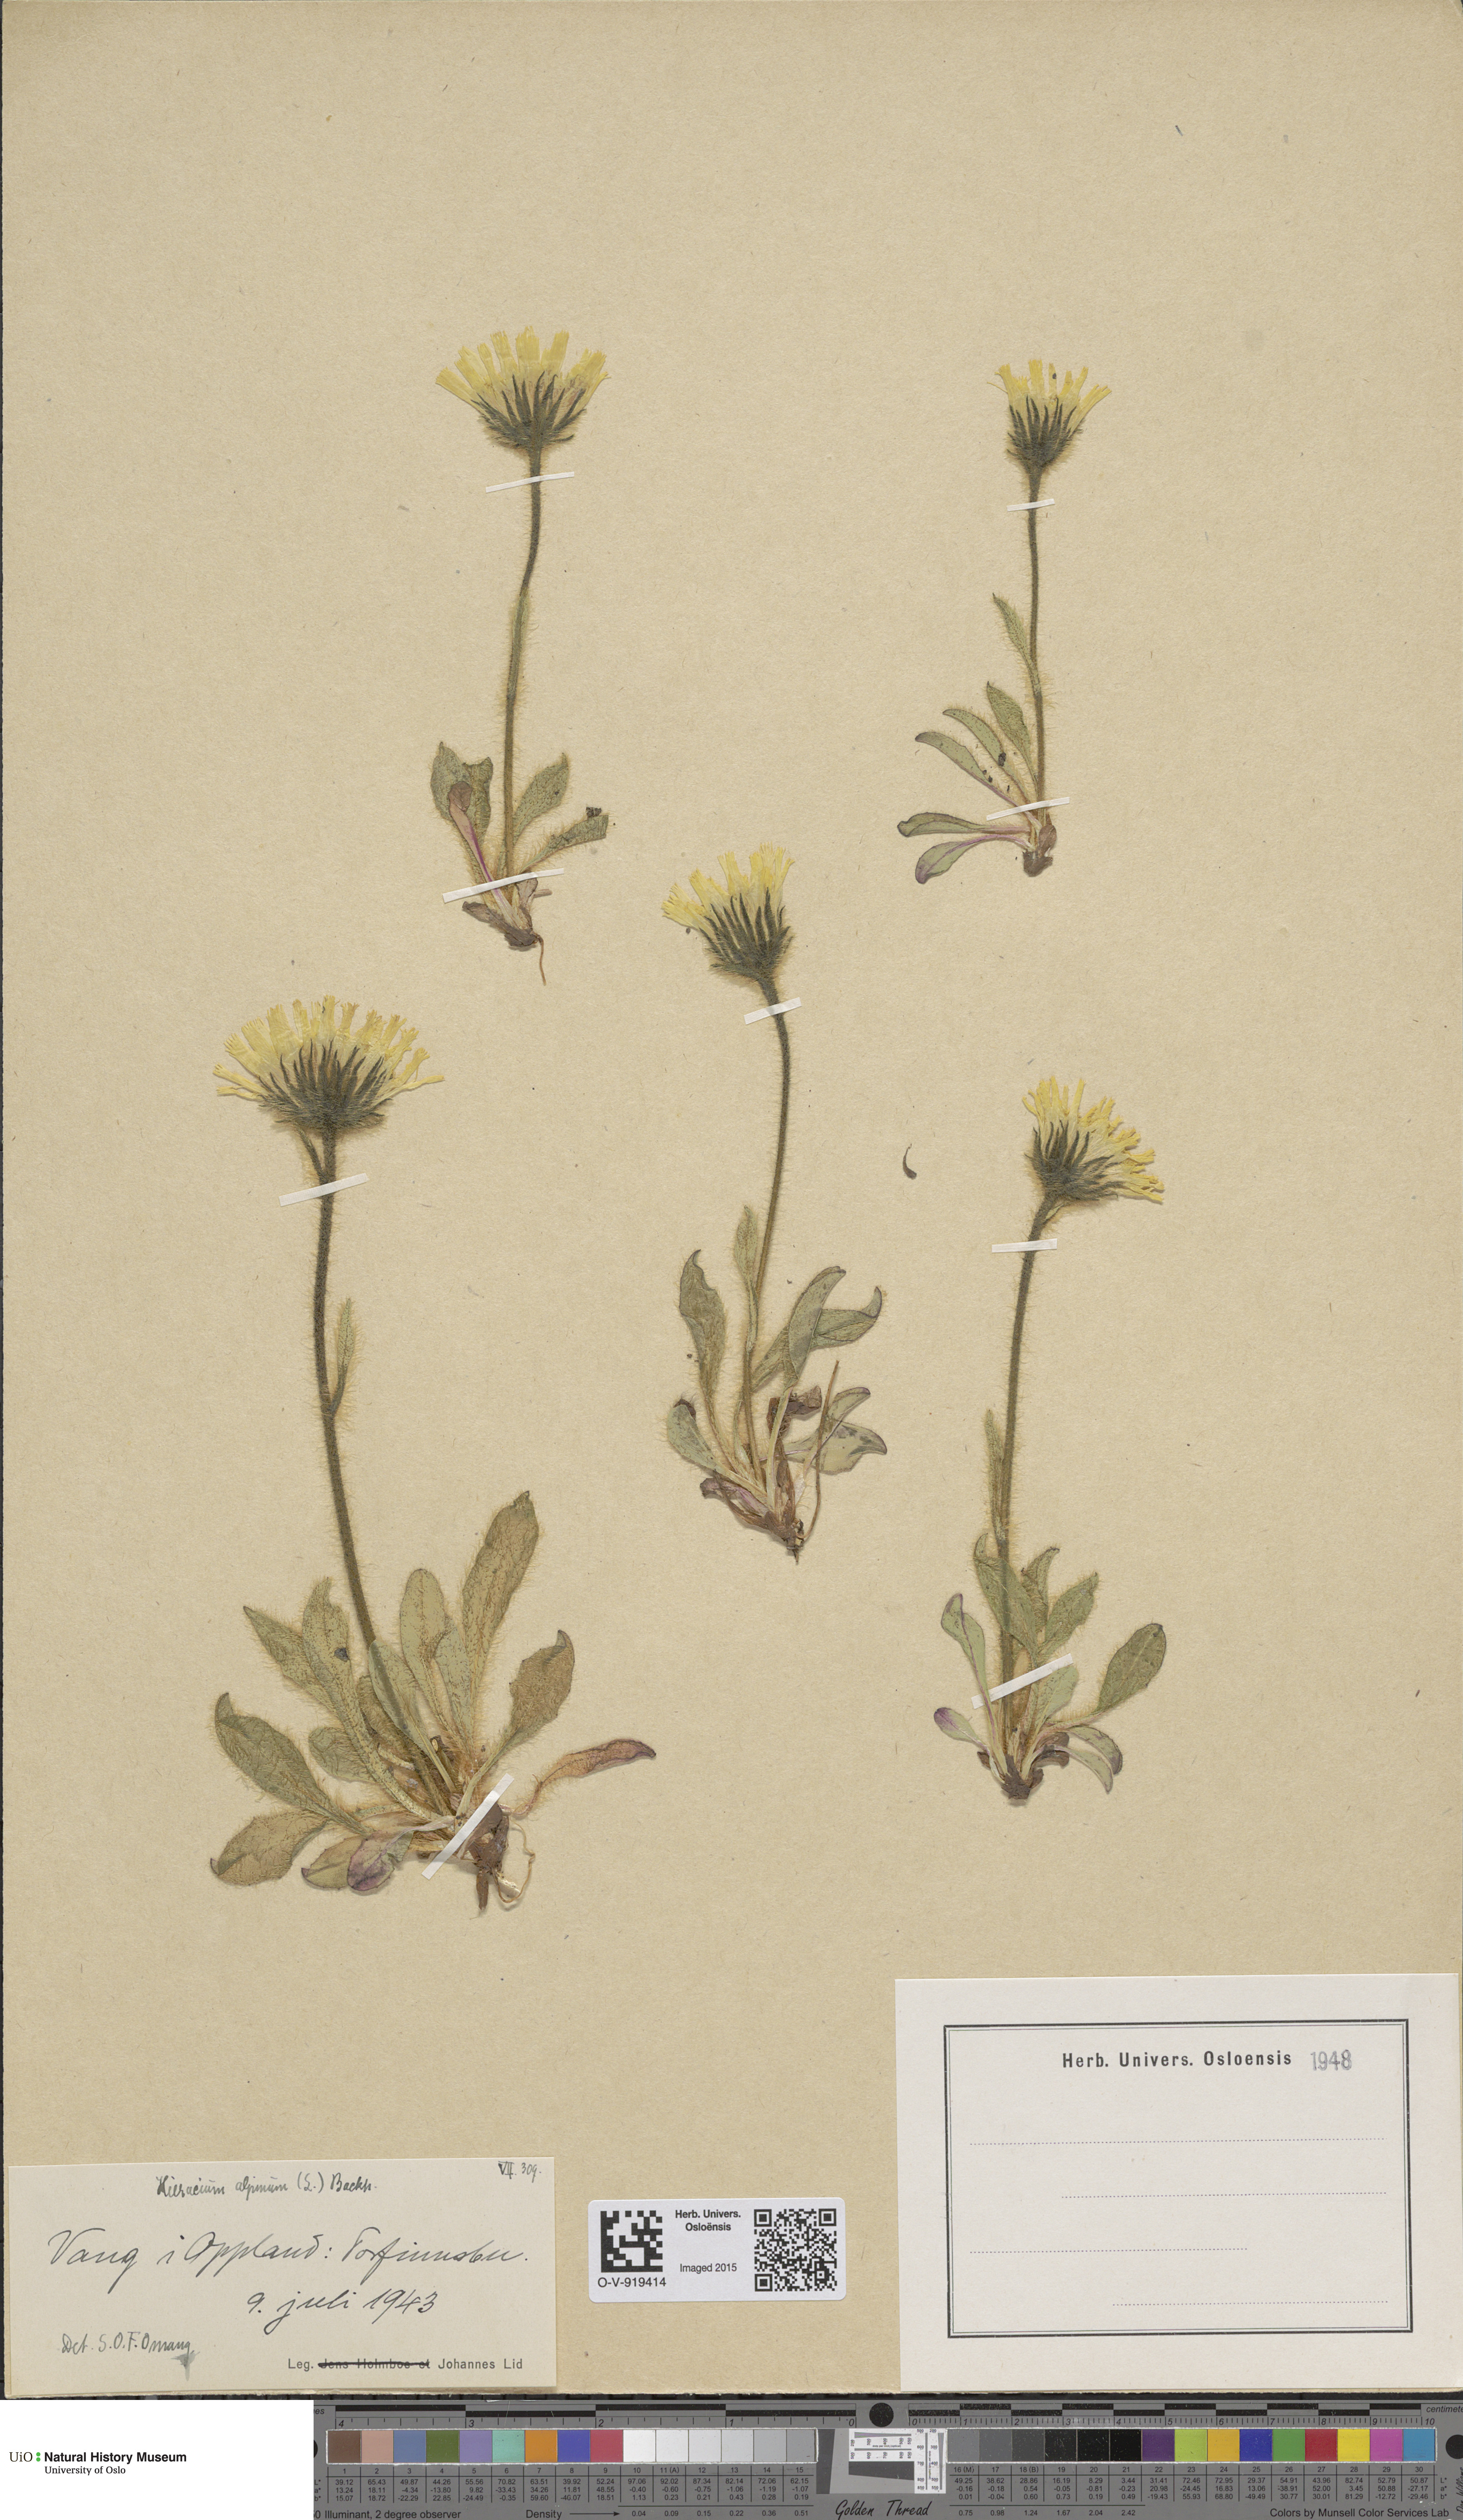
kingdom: Plantae
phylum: Tracheophyta
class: Magnoliopsida
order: Asterales
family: Asteraceae
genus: Hieracium
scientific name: Hieracium alpinum
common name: Alpine hawkweed
